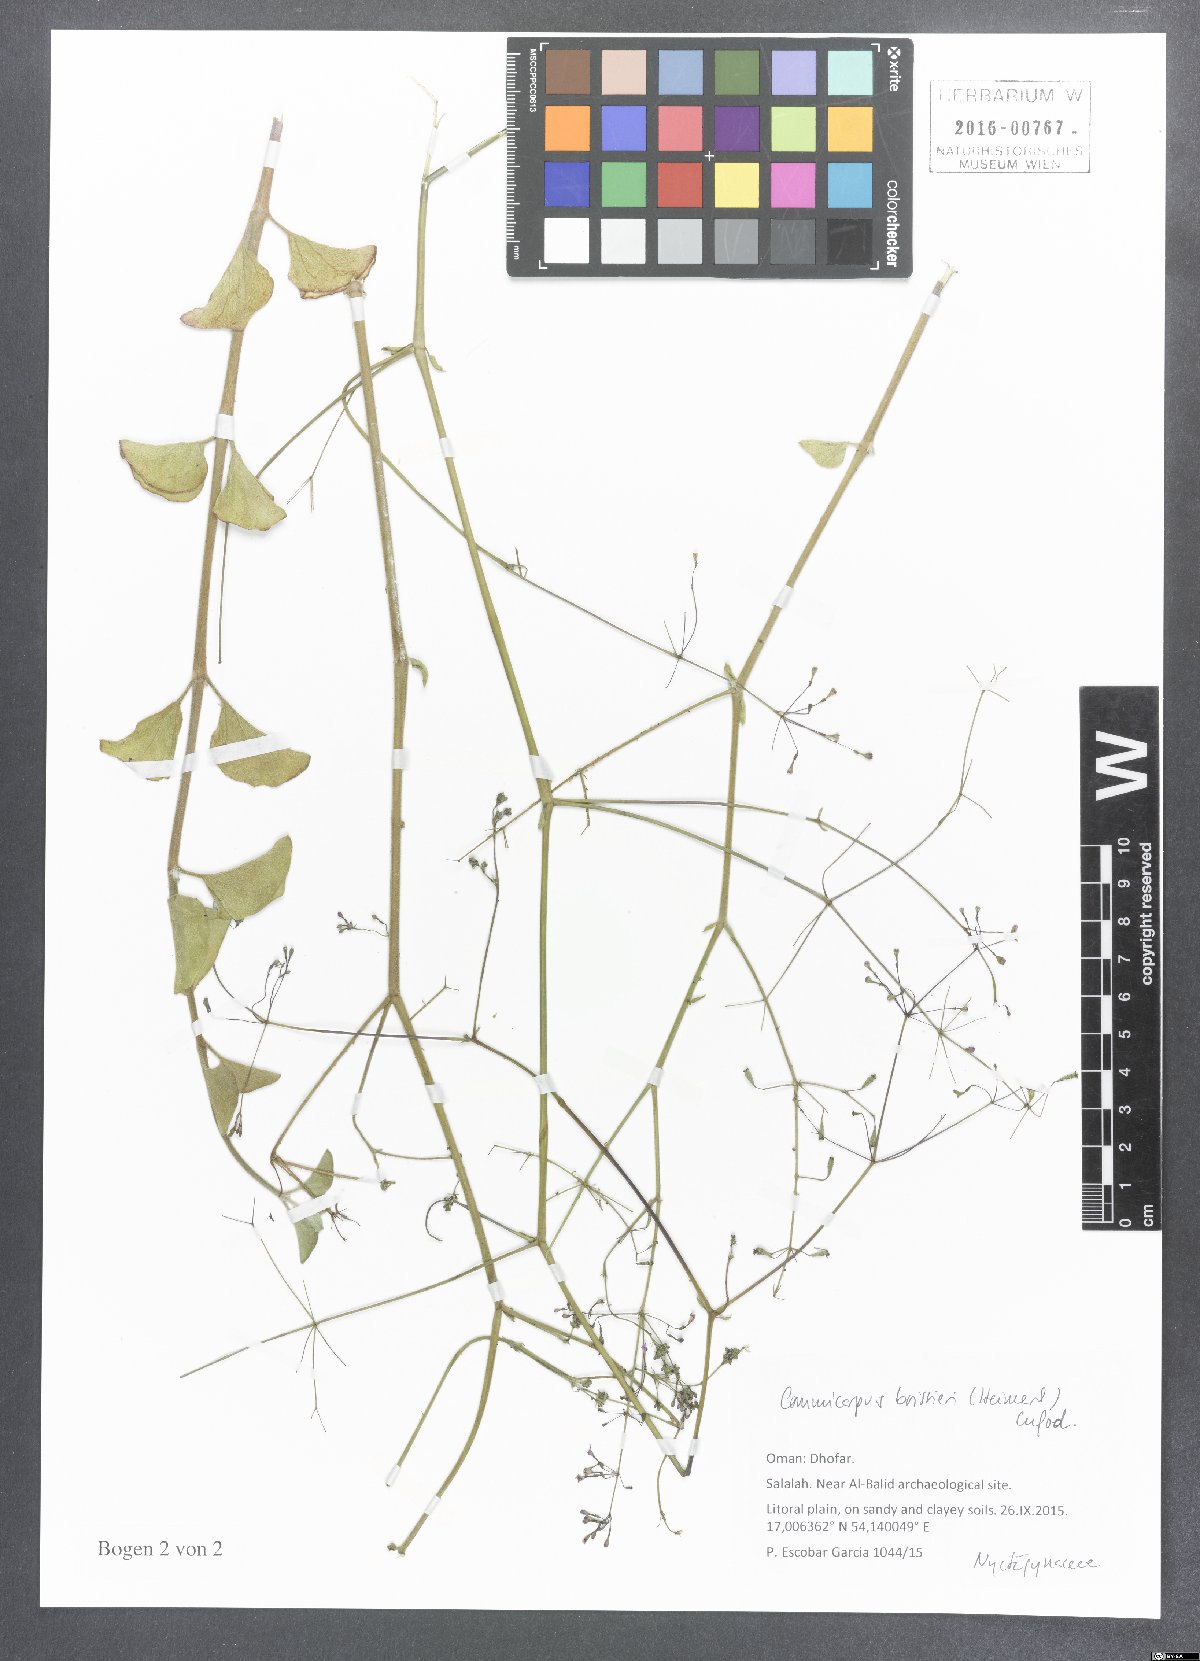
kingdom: Plantae
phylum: Tracheophyta
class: Magnoliopsida
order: Caryophyllales
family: Nyctaginaceae
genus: Commicarpus
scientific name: Commicarpus boissieri
